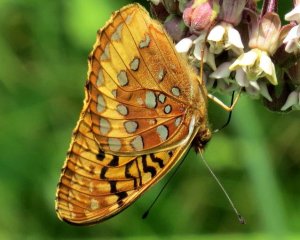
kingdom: Animalia
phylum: Arthropoda
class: Insecta
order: Lepidoptera
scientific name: Lepidoptera
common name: Butterflies
